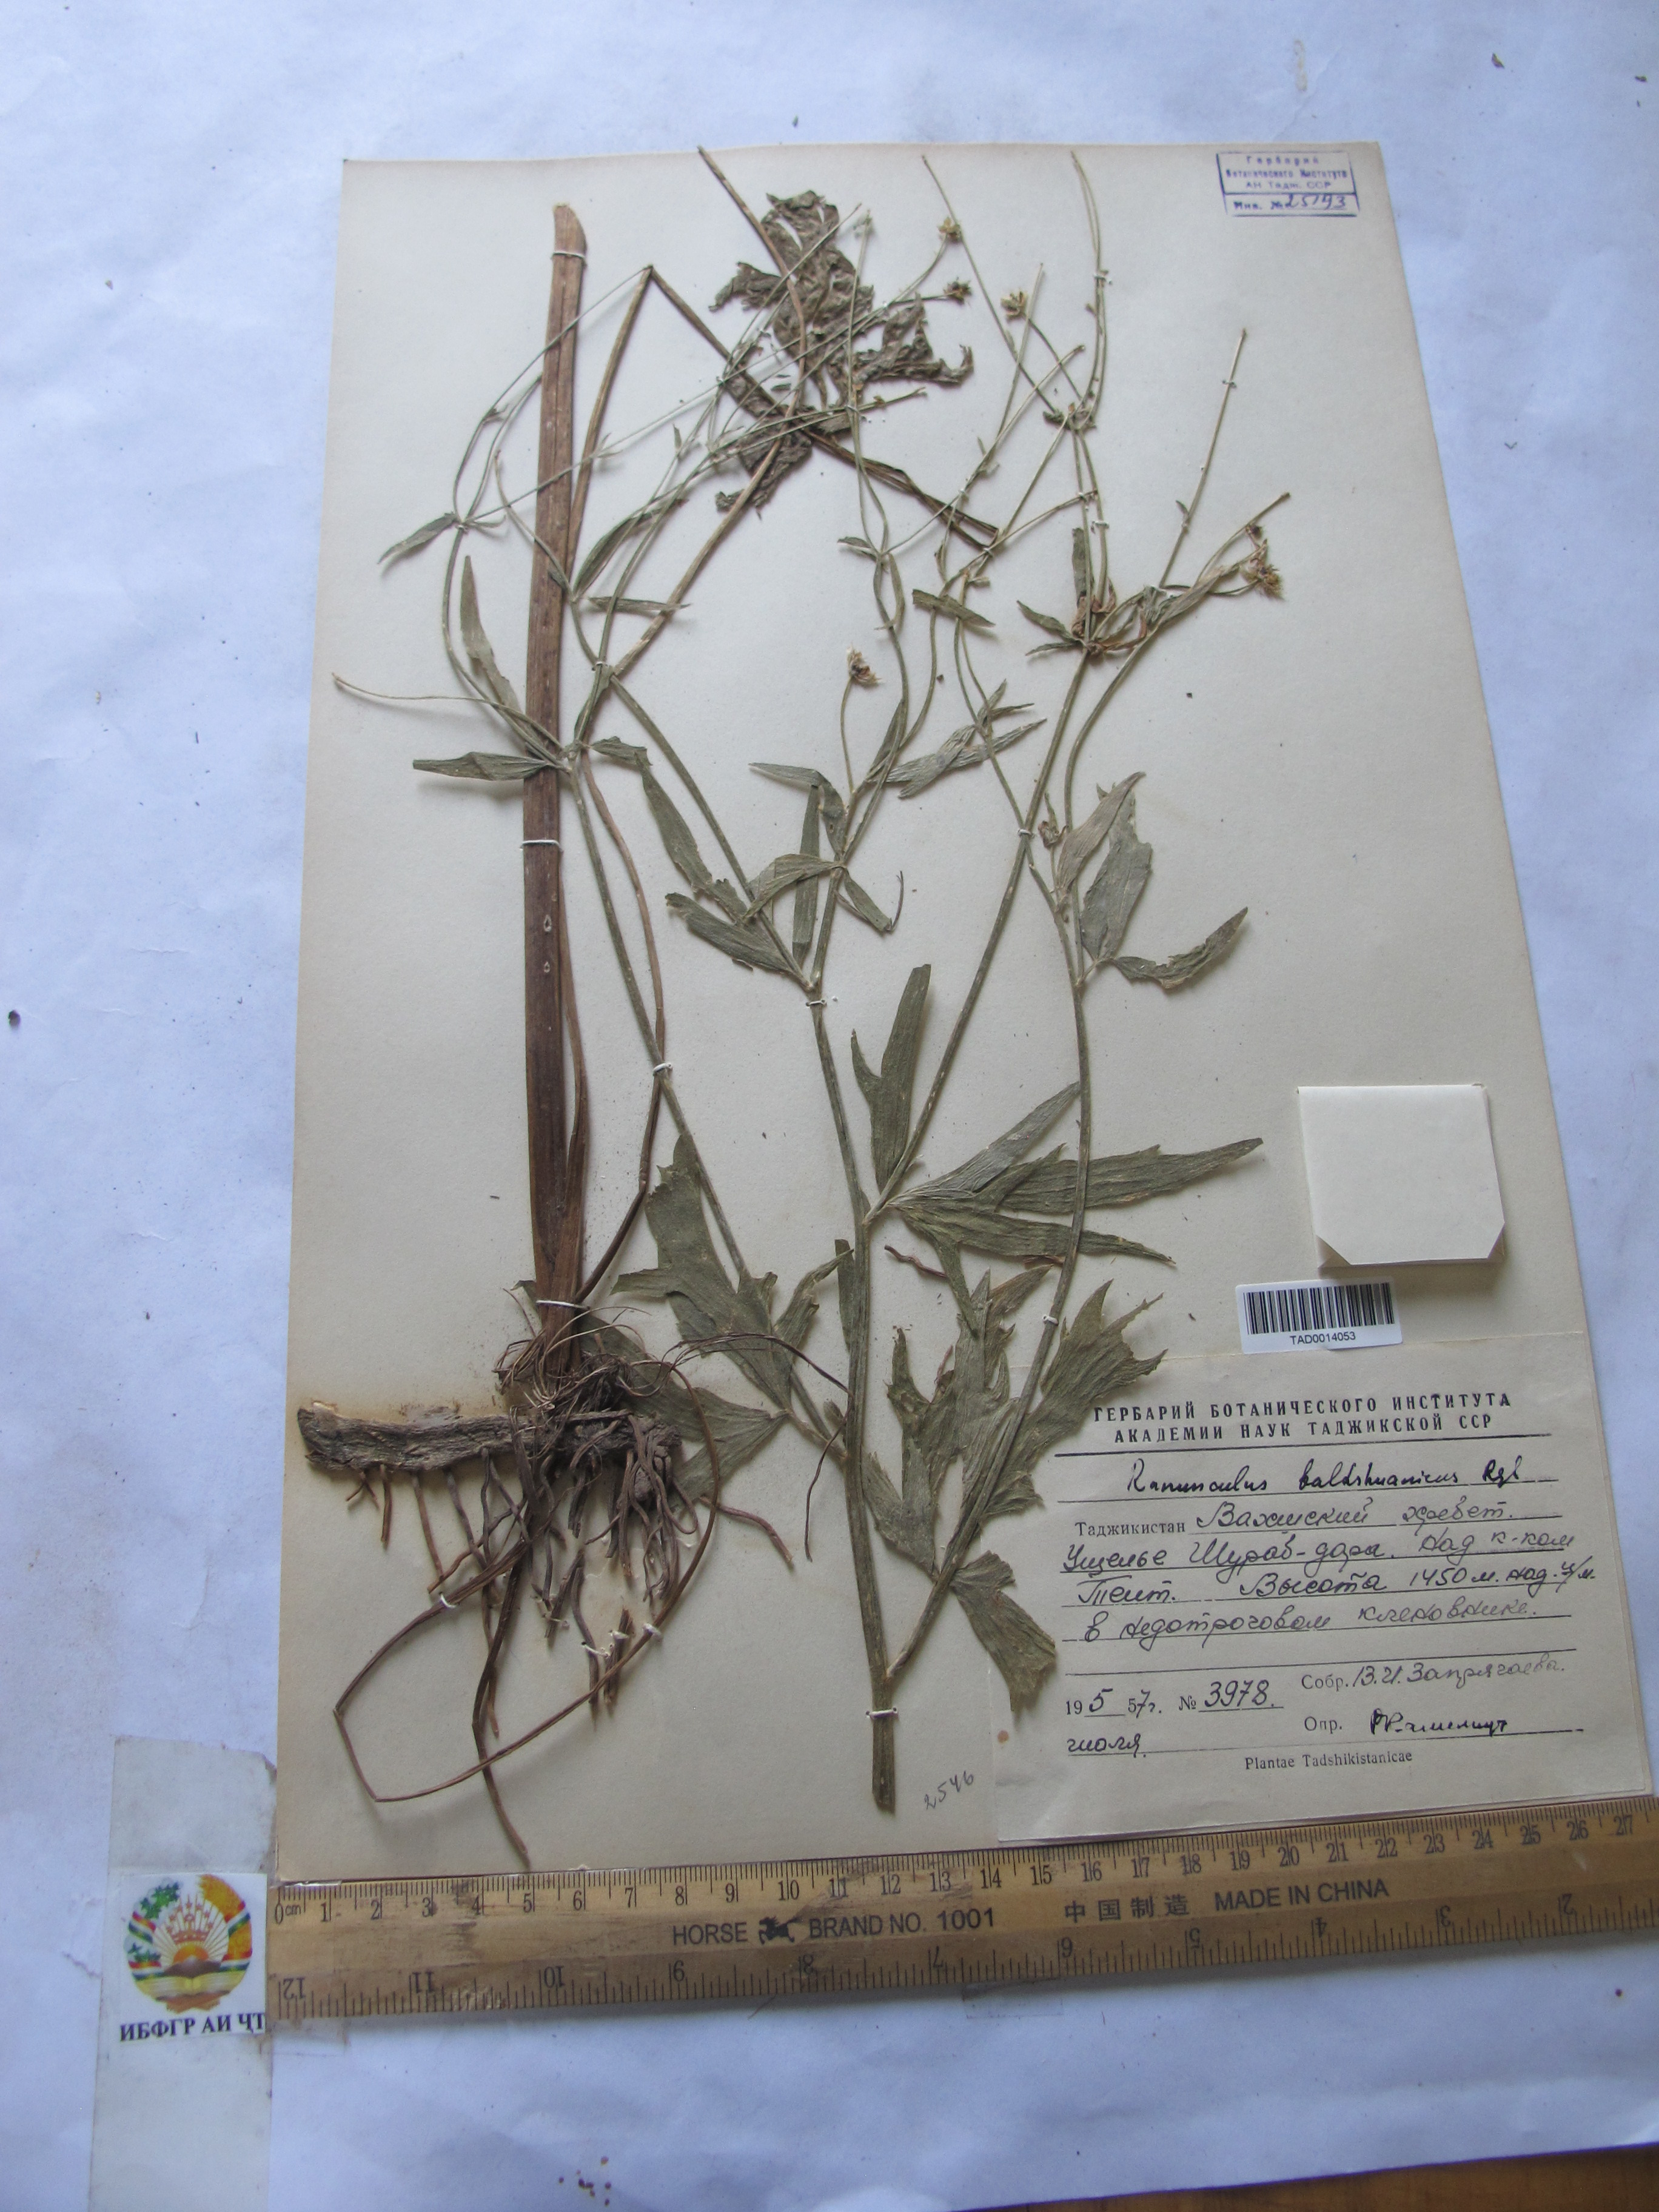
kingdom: Plantae
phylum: Tracheophyta
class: Magnoliopsida
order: Ranunculales
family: Ranunculaceae
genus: Ranunculus
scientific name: Ranunculus baldshuanicus
